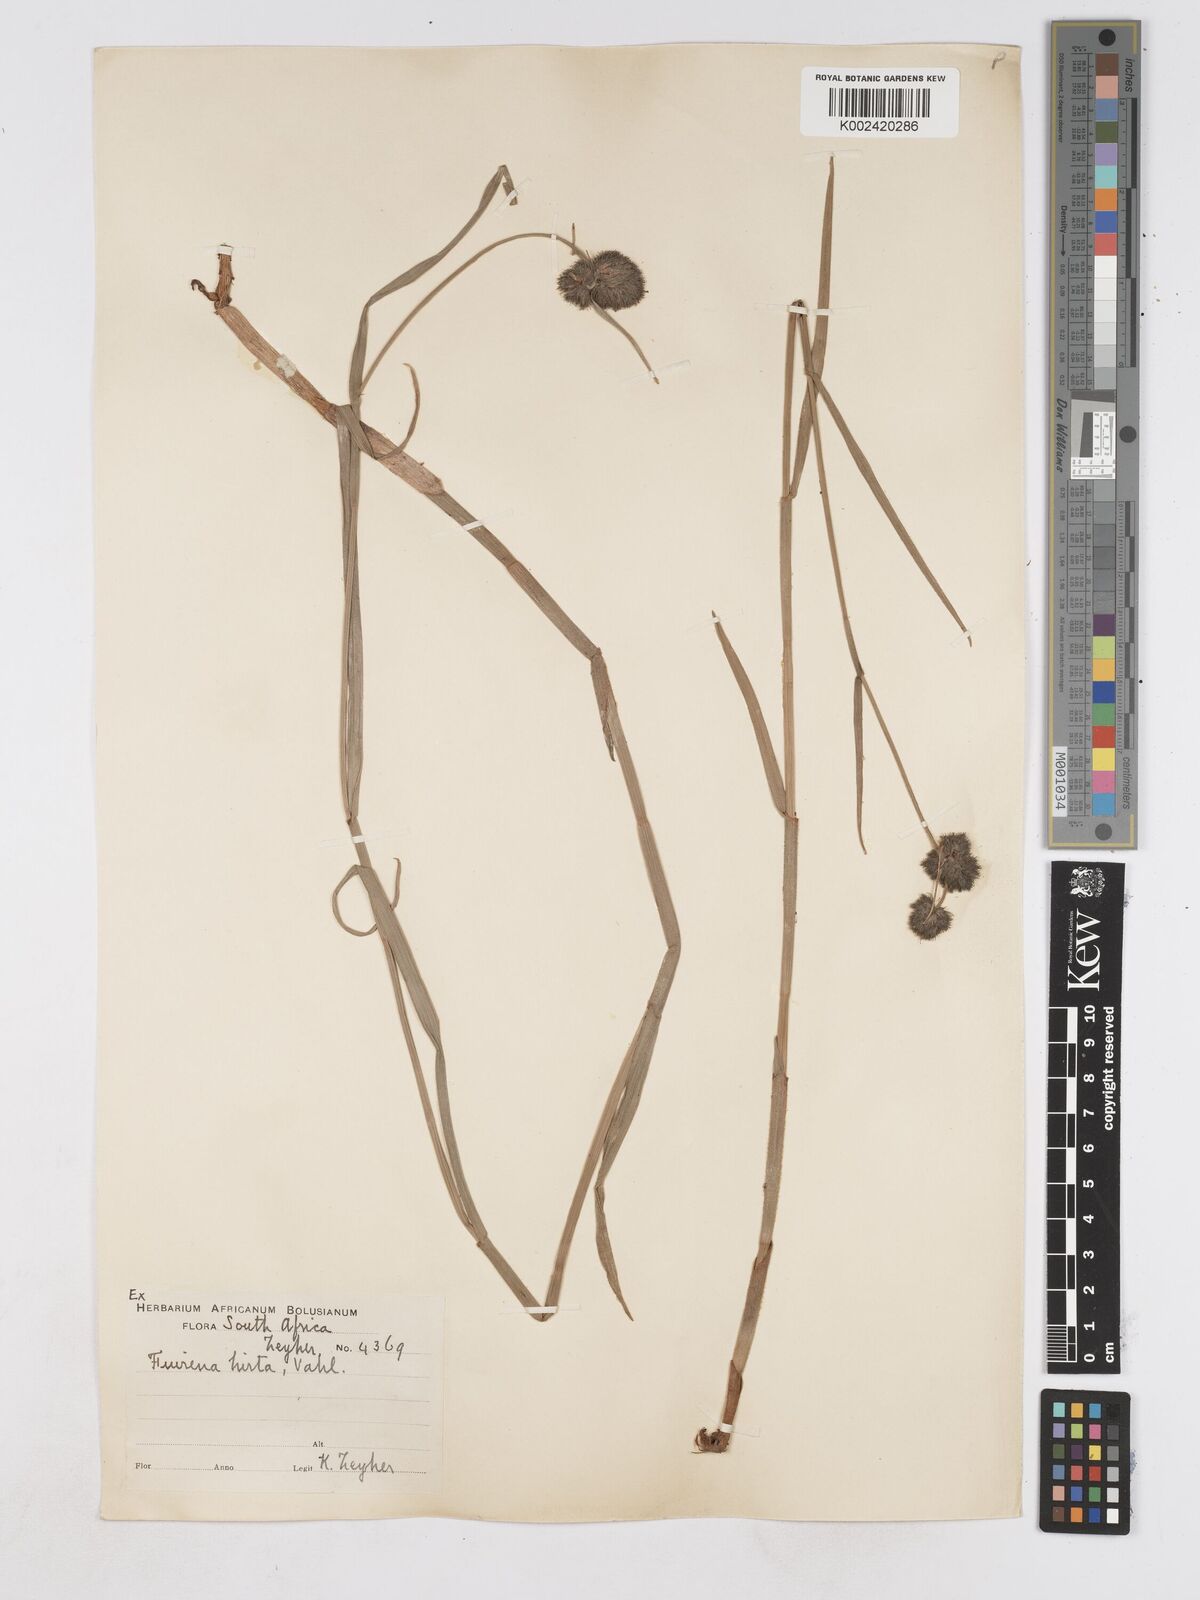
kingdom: Plantae
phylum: Tracheophyta
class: Liliopsida
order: Poales
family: Cyperaceae
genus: Fuirena
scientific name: Fuirena hirsuta
